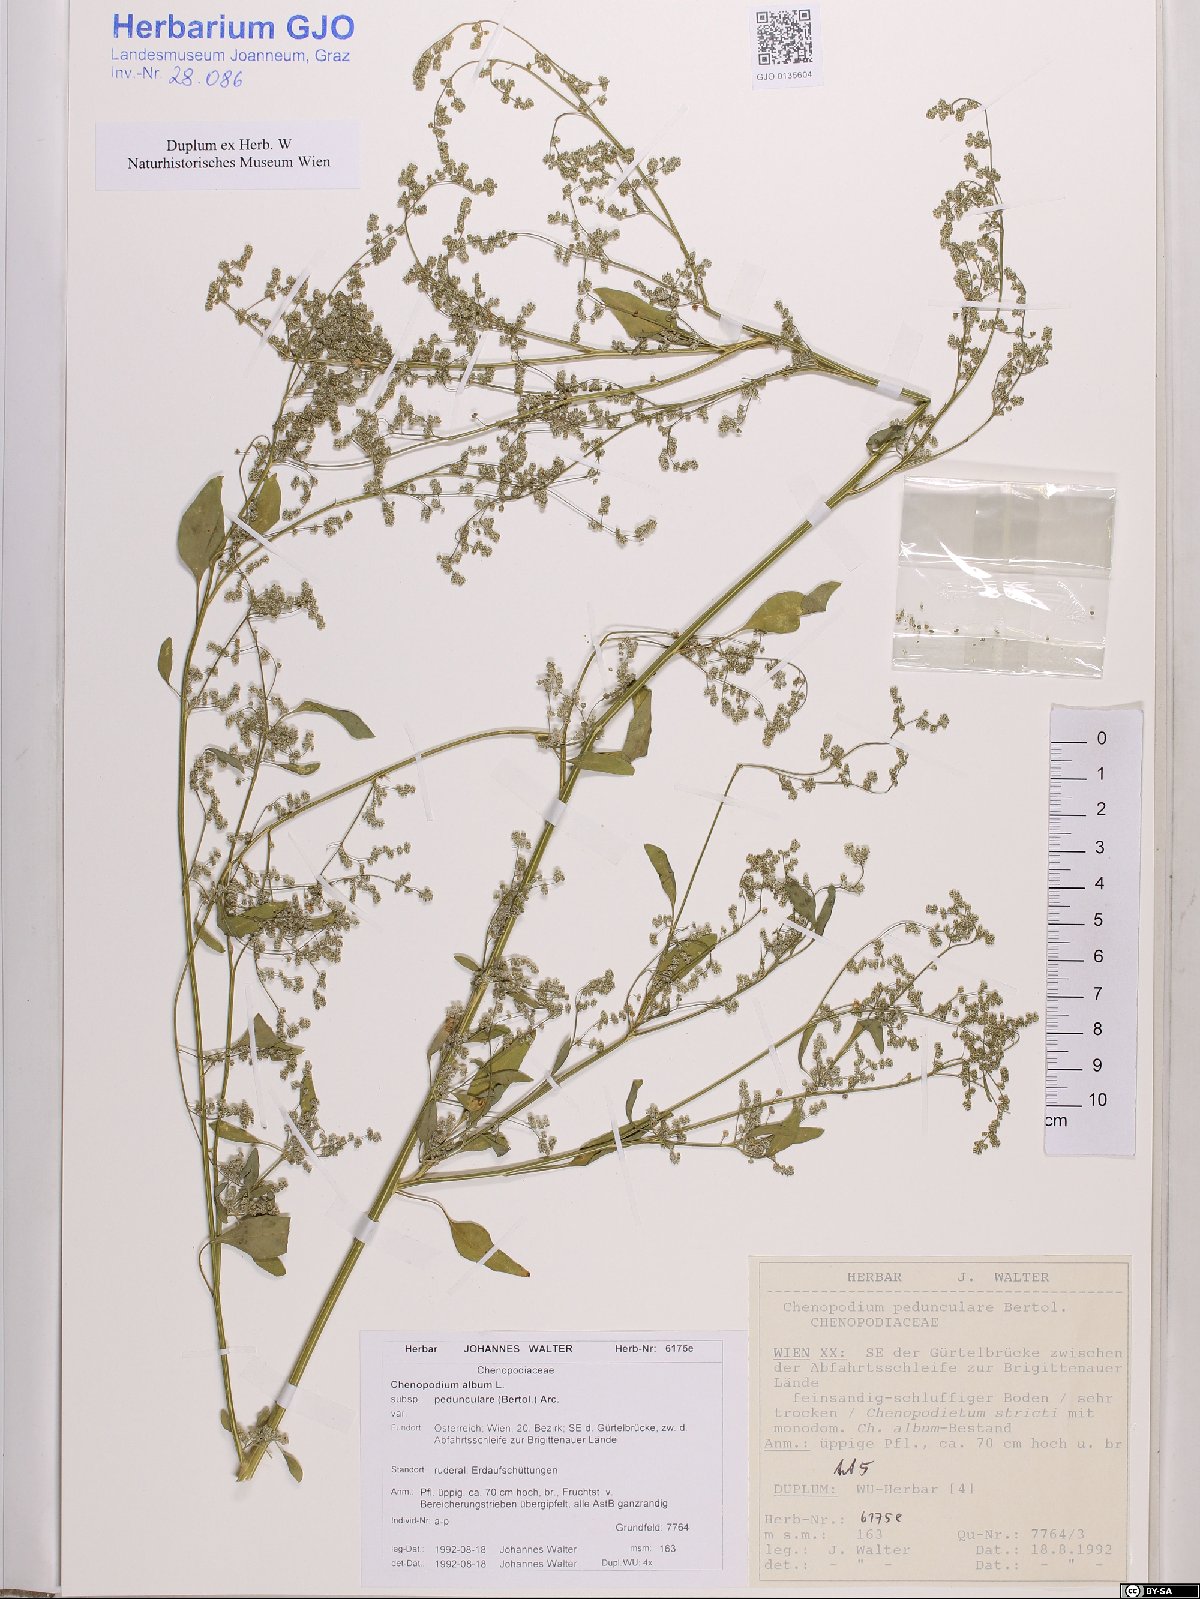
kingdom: Plantae
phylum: Tracheophyta
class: Magnoliopsida
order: Caryophyllales
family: Amaranthaceae
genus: Chenopodium
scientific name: Chenopodium album
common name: Fat-hen
